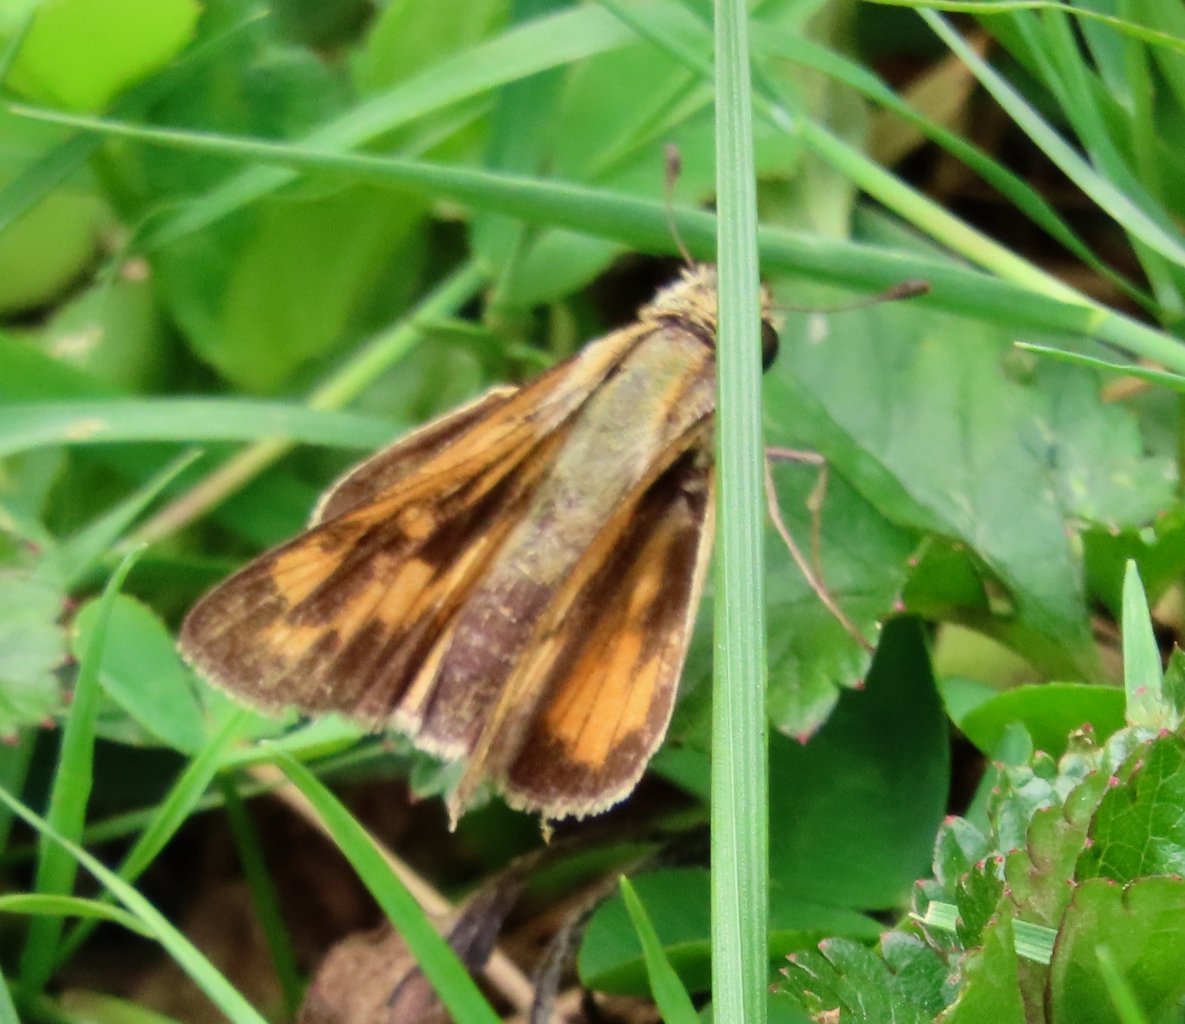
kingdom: Animalia
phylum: Arthropoda
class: Insecta
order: Lepidoptera
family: Hesperiidae
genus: Hylephila
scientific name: Hylephila phyleus
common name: Fiery Skipper
